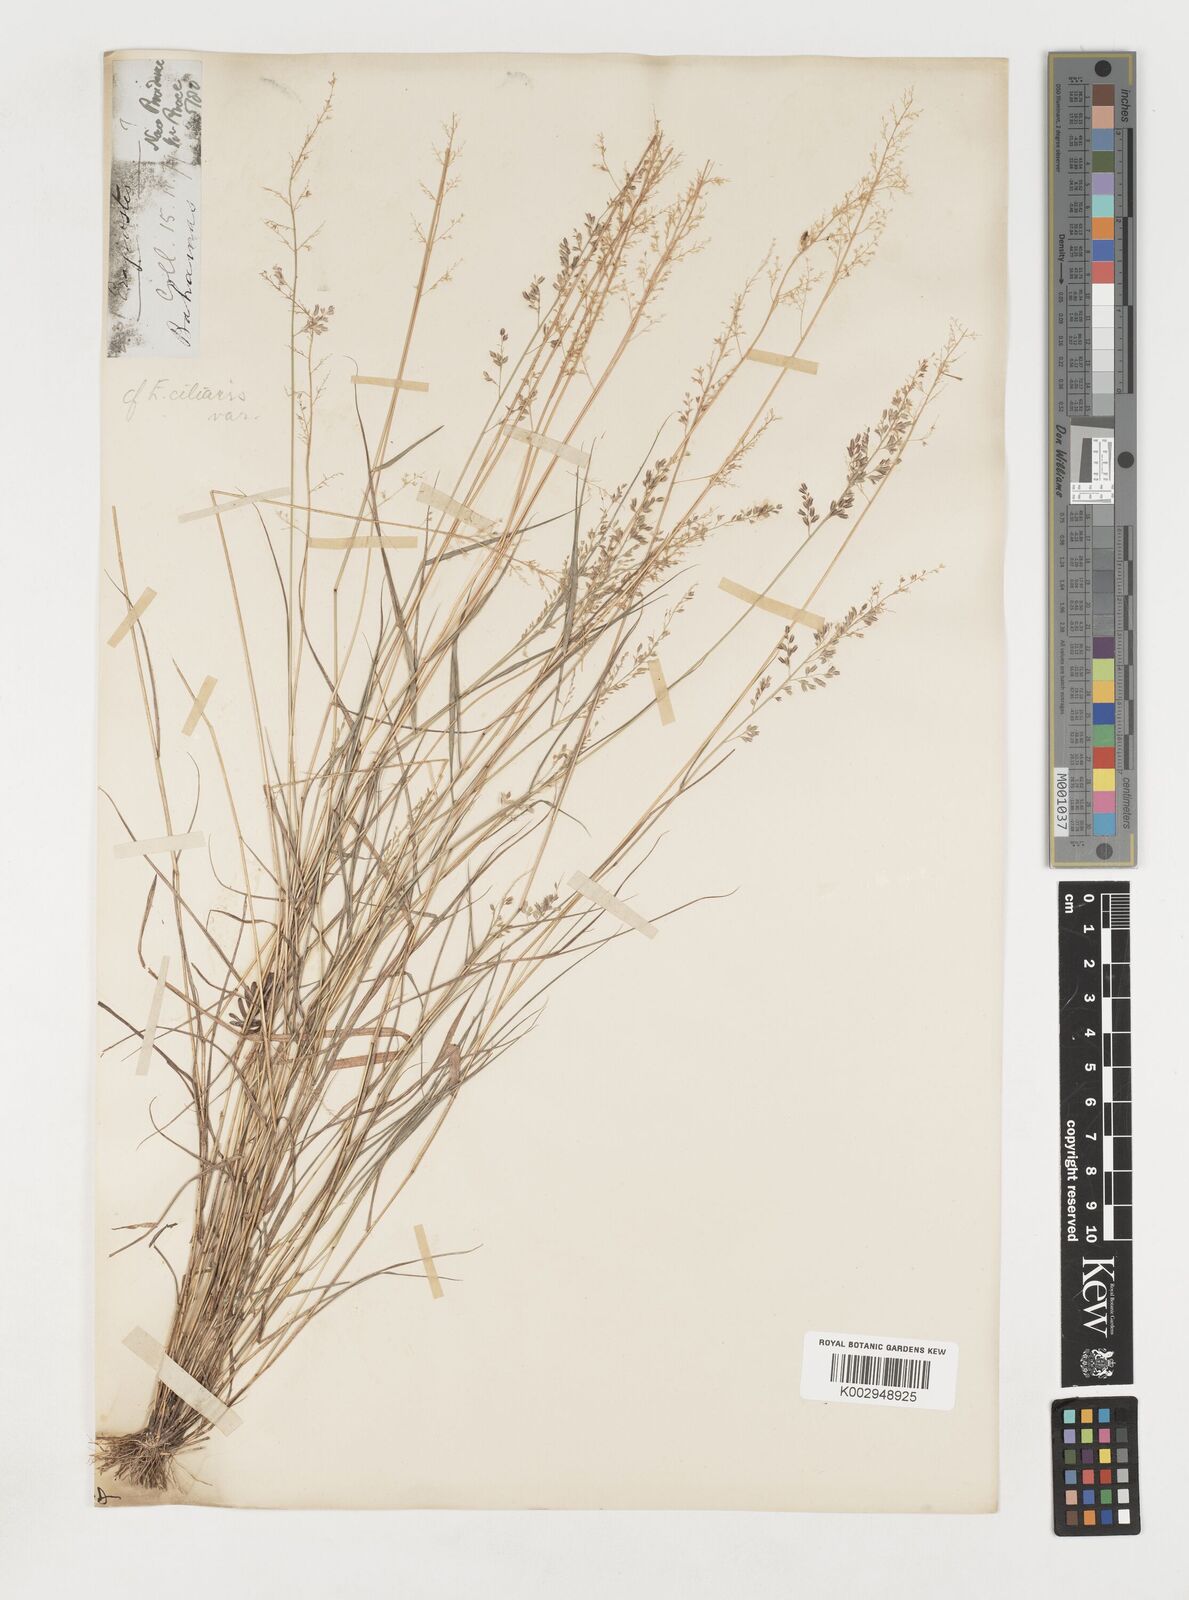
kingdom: Plantae
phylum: Tracheophyta
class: Liliopsida
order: Poales
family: Poaceae
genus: Eragrostis
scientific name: Eragrostis tenella
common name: Japanese lovegrass
